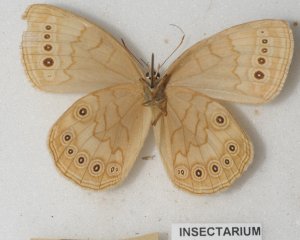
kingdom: Animalia
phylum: Arthropoda
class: Insecta
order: Lepidoptera
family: Nymphalidae
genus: Lethe
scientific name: Lethe eurydice
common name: Eyed Brown
